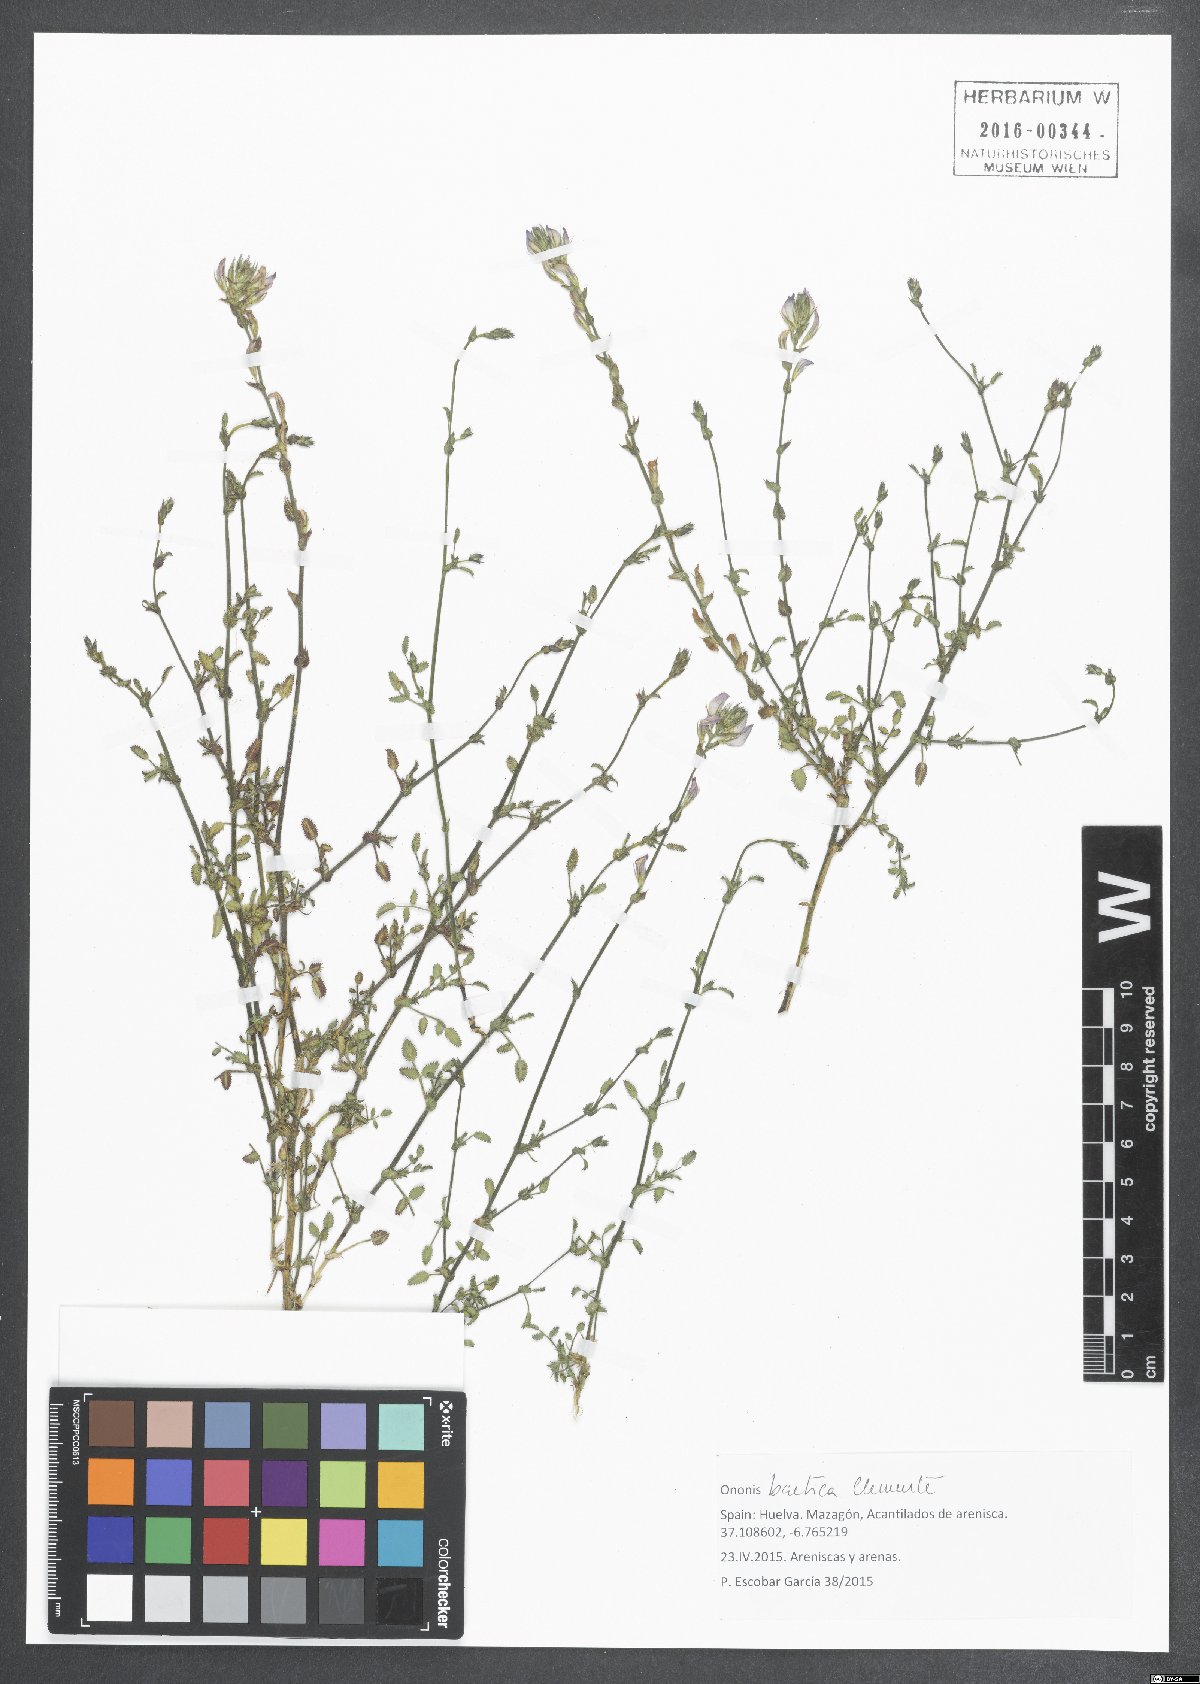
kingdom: Plantae
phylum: Tracheophyta
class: Magnoliopsida
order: Fabales
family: Fabaceae
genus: Ononis
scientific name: Ononis baetica
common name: Andalucian restharrow
